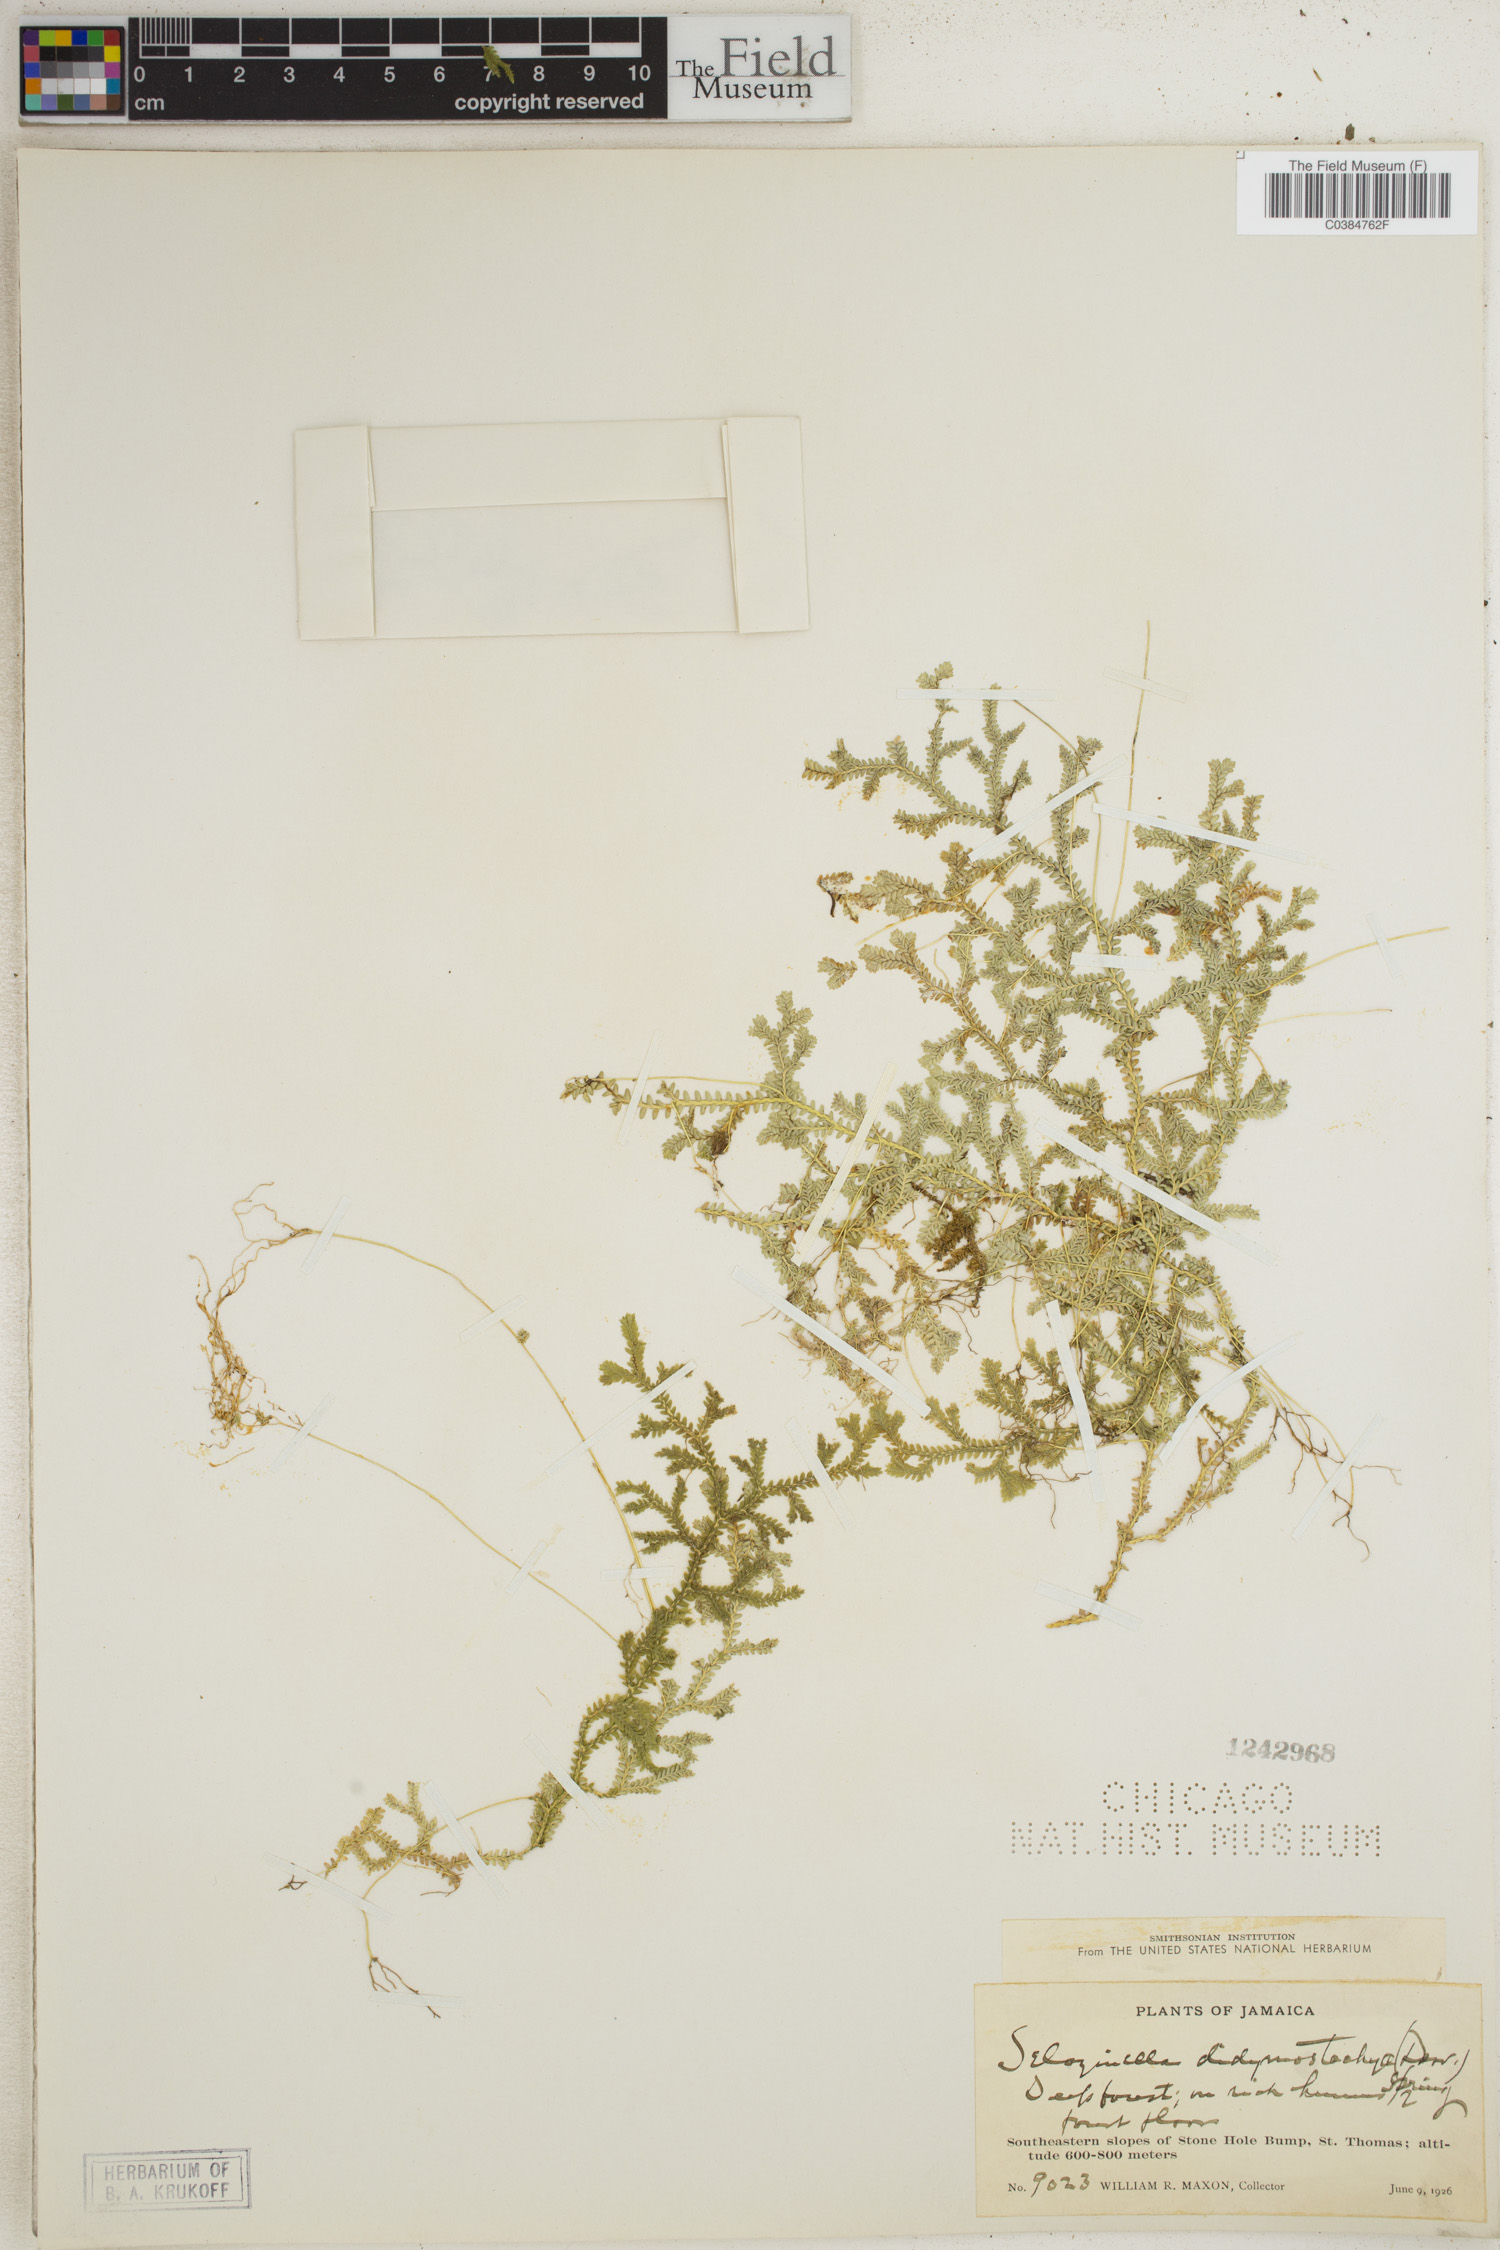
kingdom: Plantae
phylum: Tracheophyta
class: Lycopodiopsida
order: Selaginellales
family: Selaginellaceae
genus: Selaginella
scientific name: Selaginella denudata
